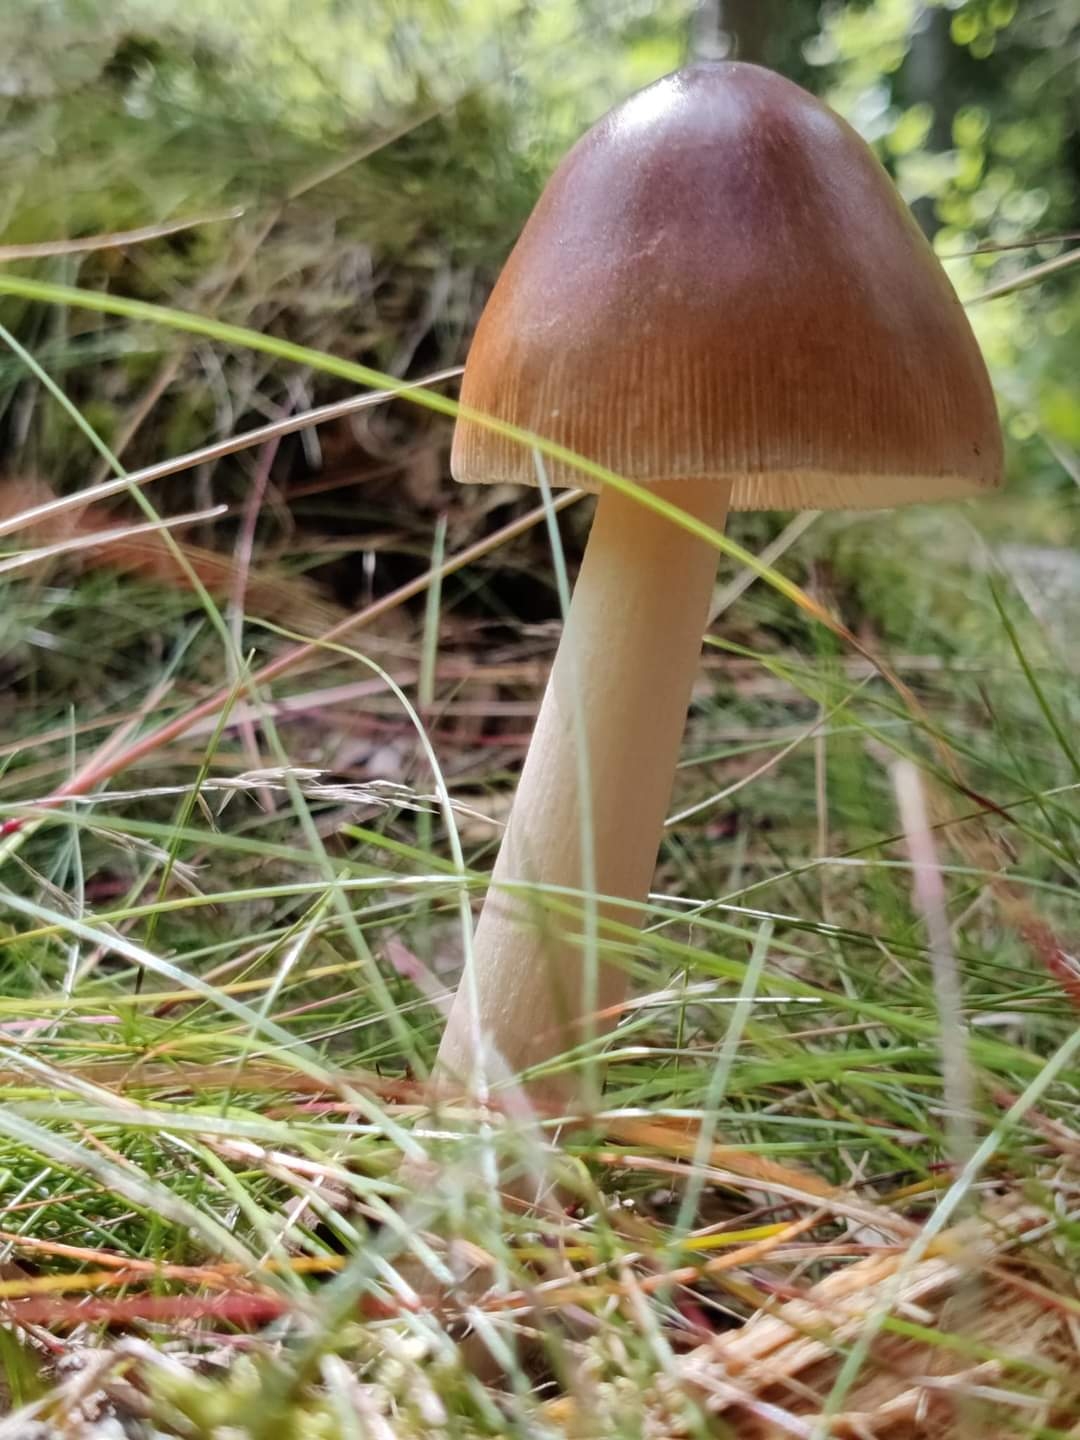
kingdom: Fungi
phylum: Basidiomycota
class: Agaricomycetes
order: Agaricales
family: Amanitaceae
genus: Amanita
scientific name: Amanita fulva
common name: brun kam-fluesvamp
